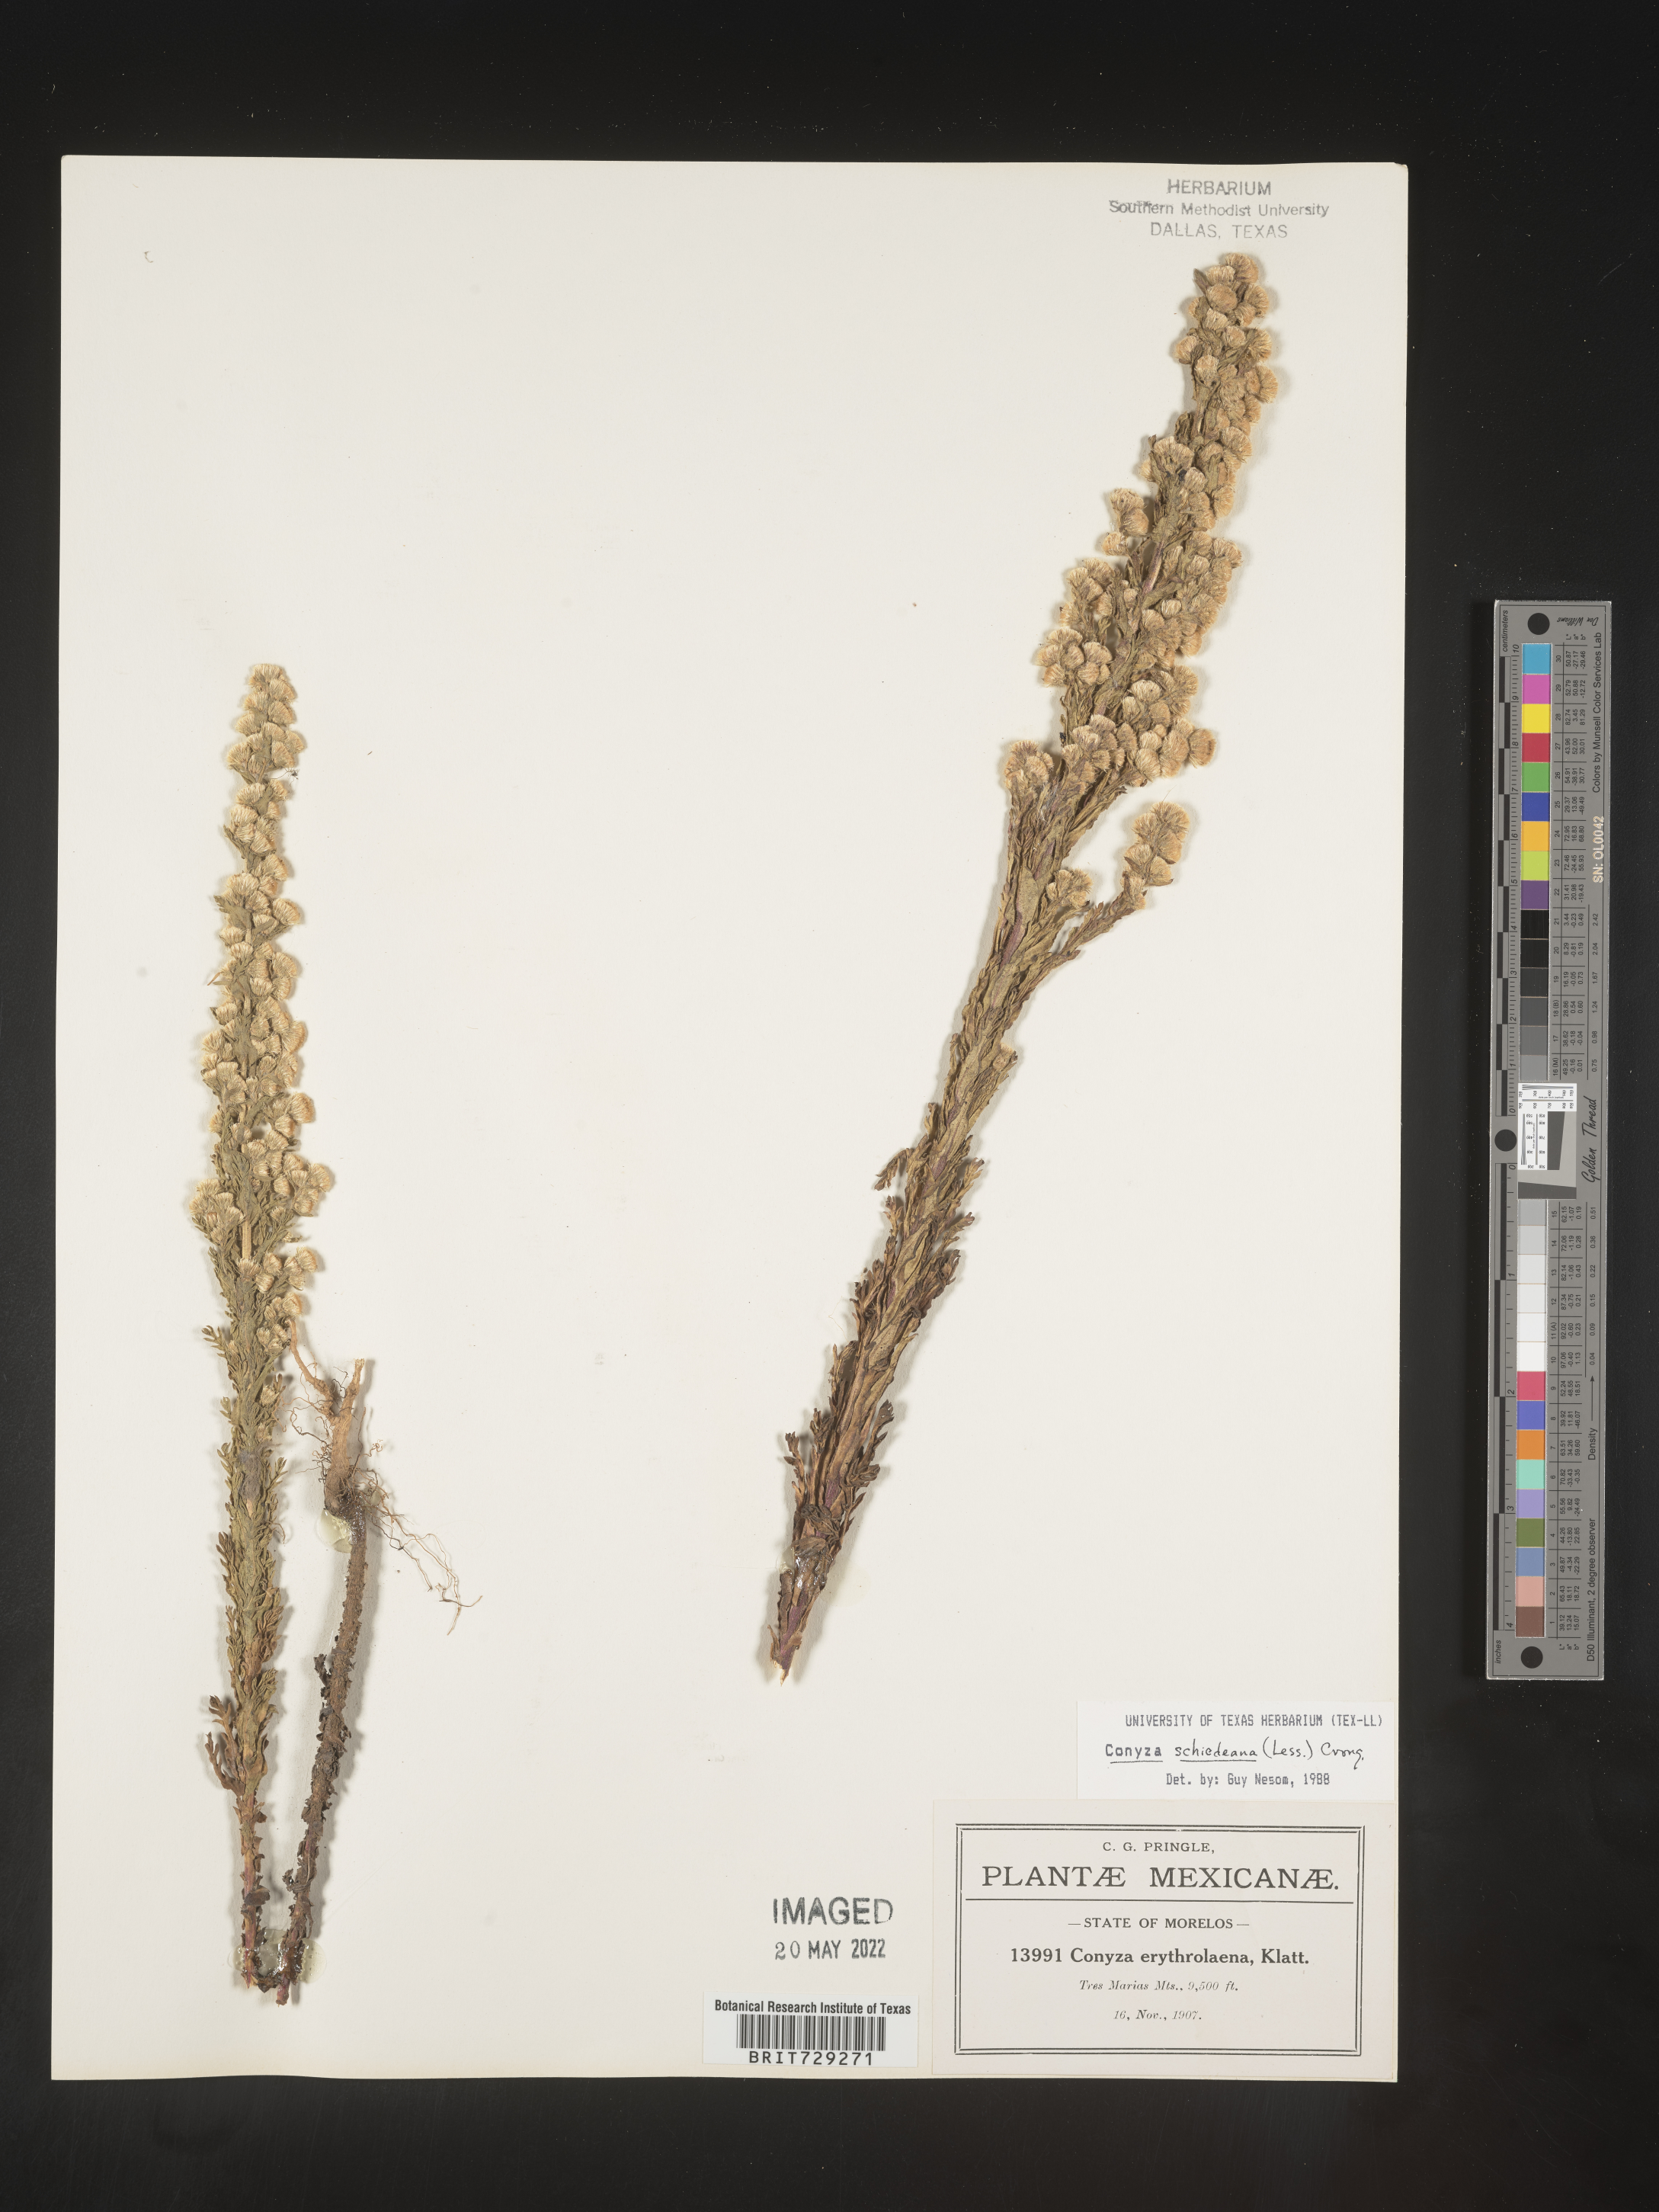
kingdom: Plantae
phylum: Tracheophyta
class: Magnoliopsida
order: Asterales
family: Asteraceae
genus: Laennecia
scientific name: Laennecia
